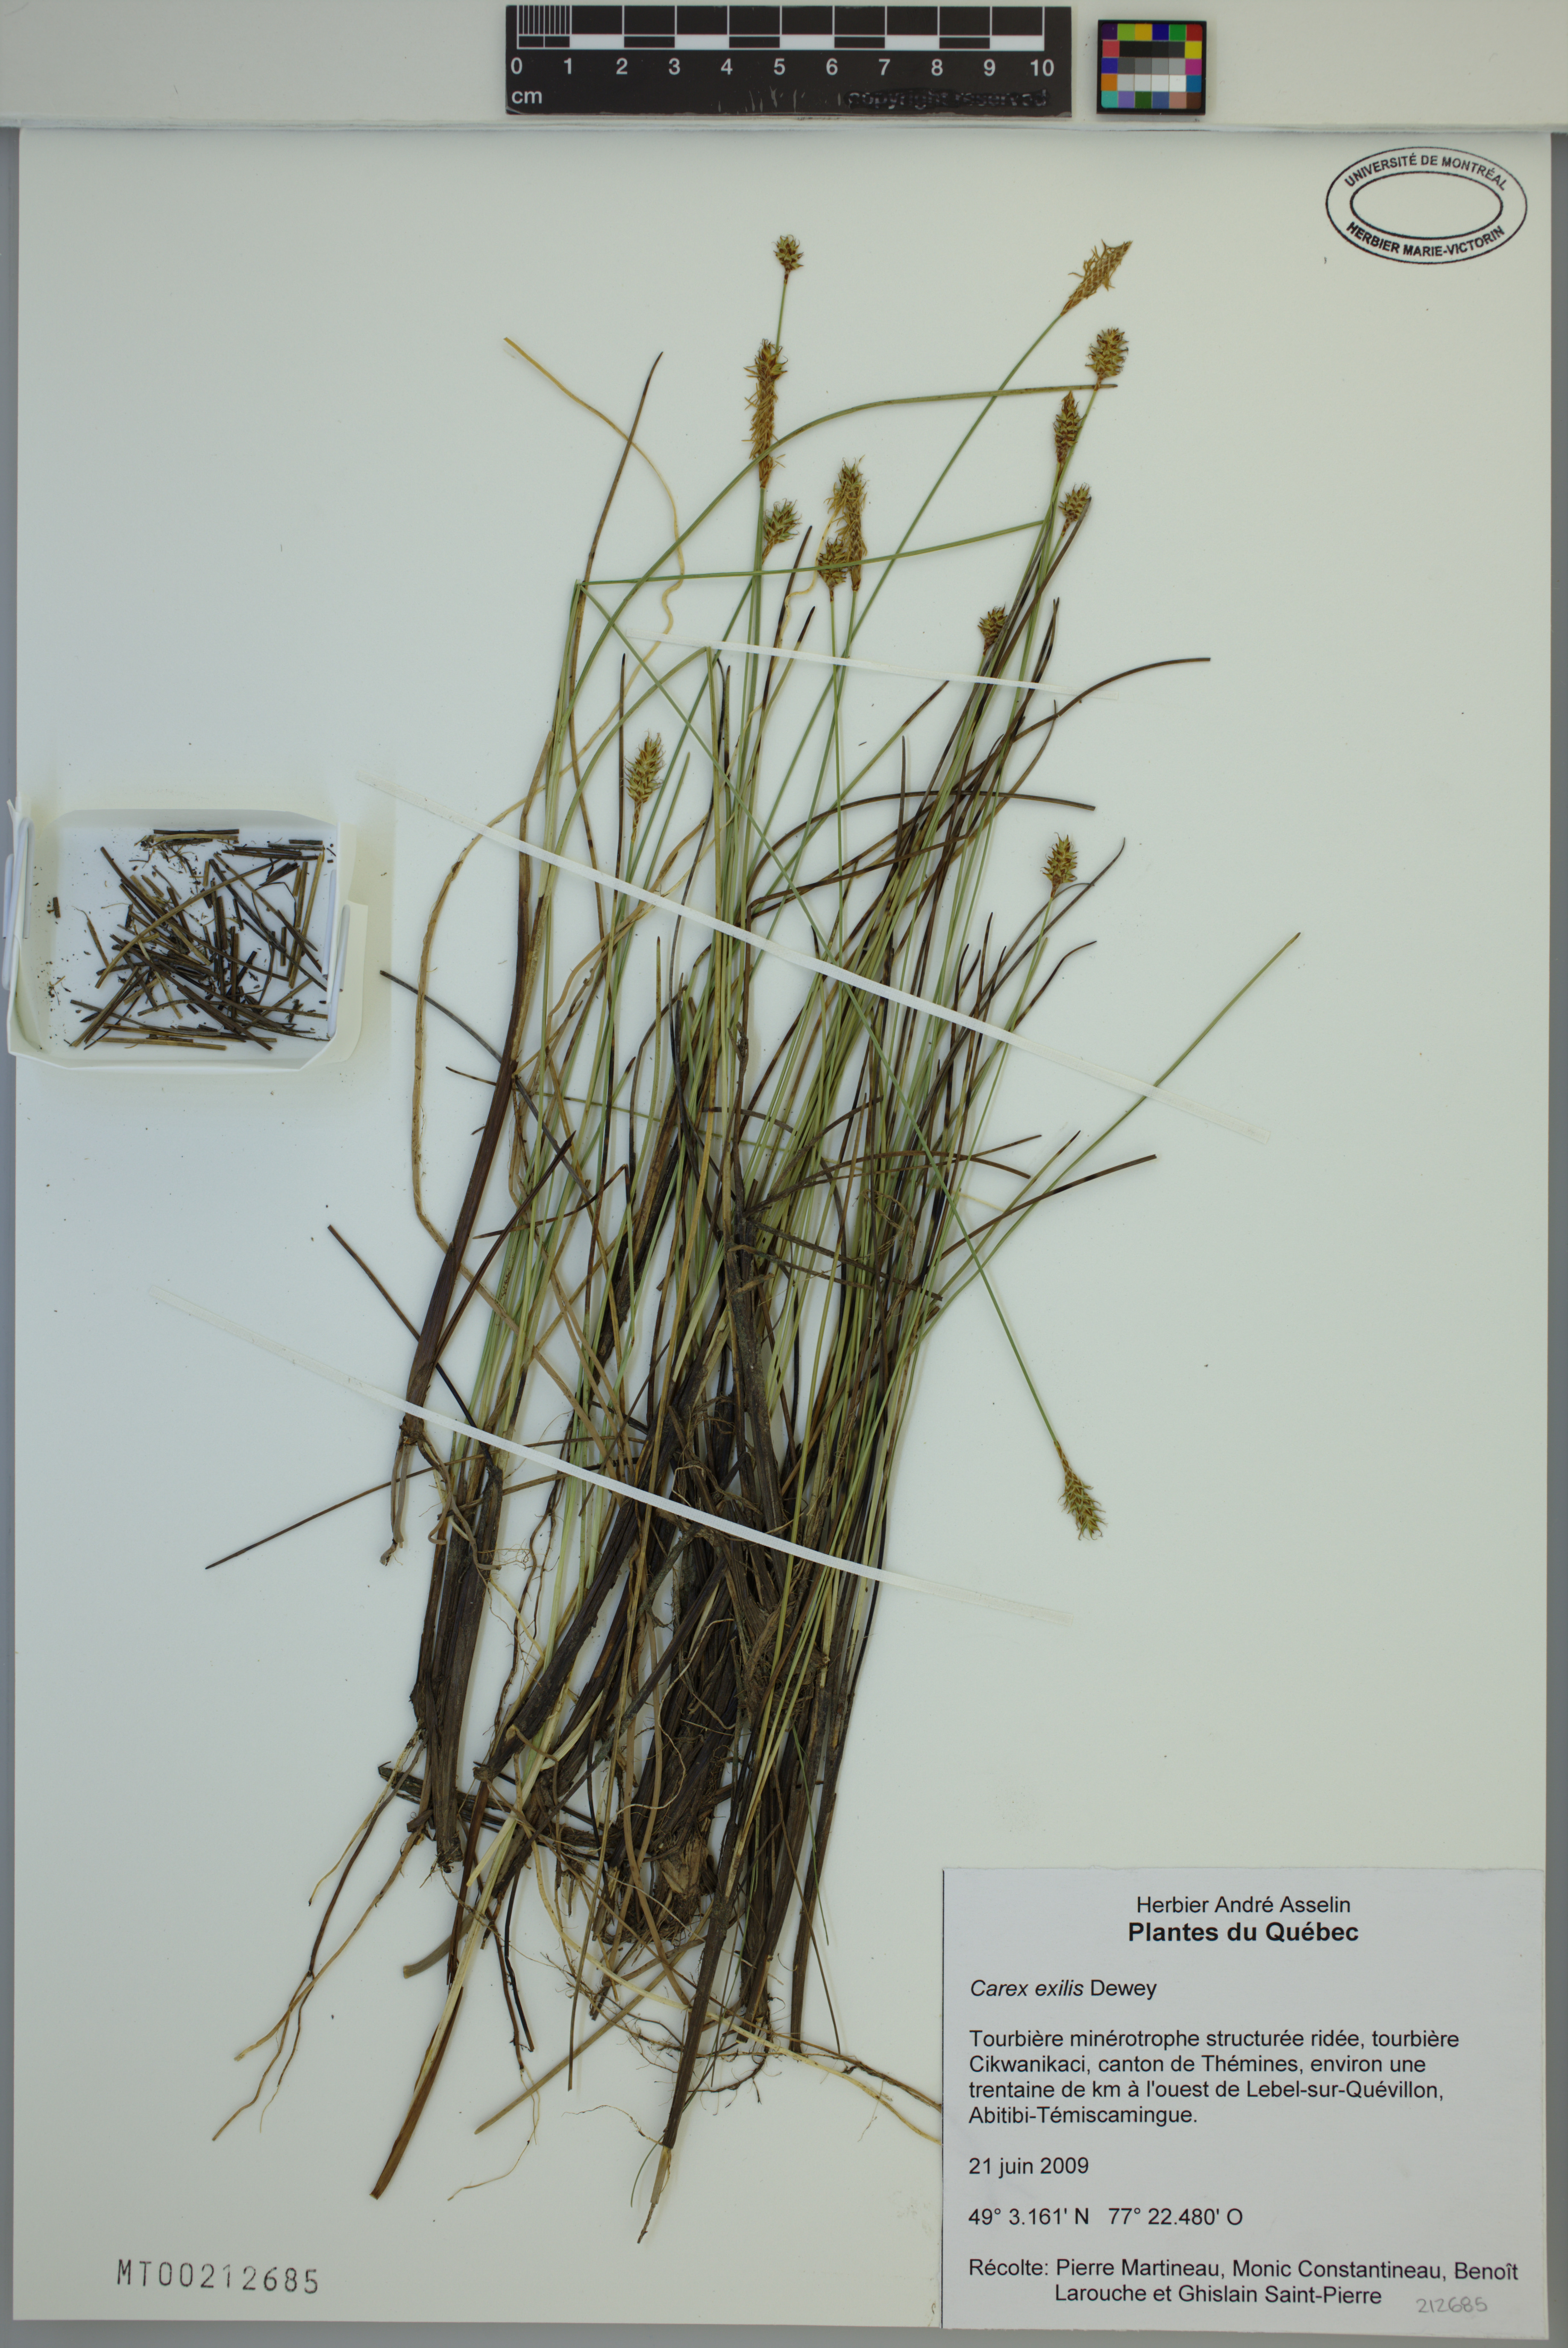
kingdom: Plantae
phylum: Tracheophyta
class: Liliopsida
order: Poales
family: Cyperaceae
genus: Carex
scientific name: Carex exilis
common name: Coastal sedge
